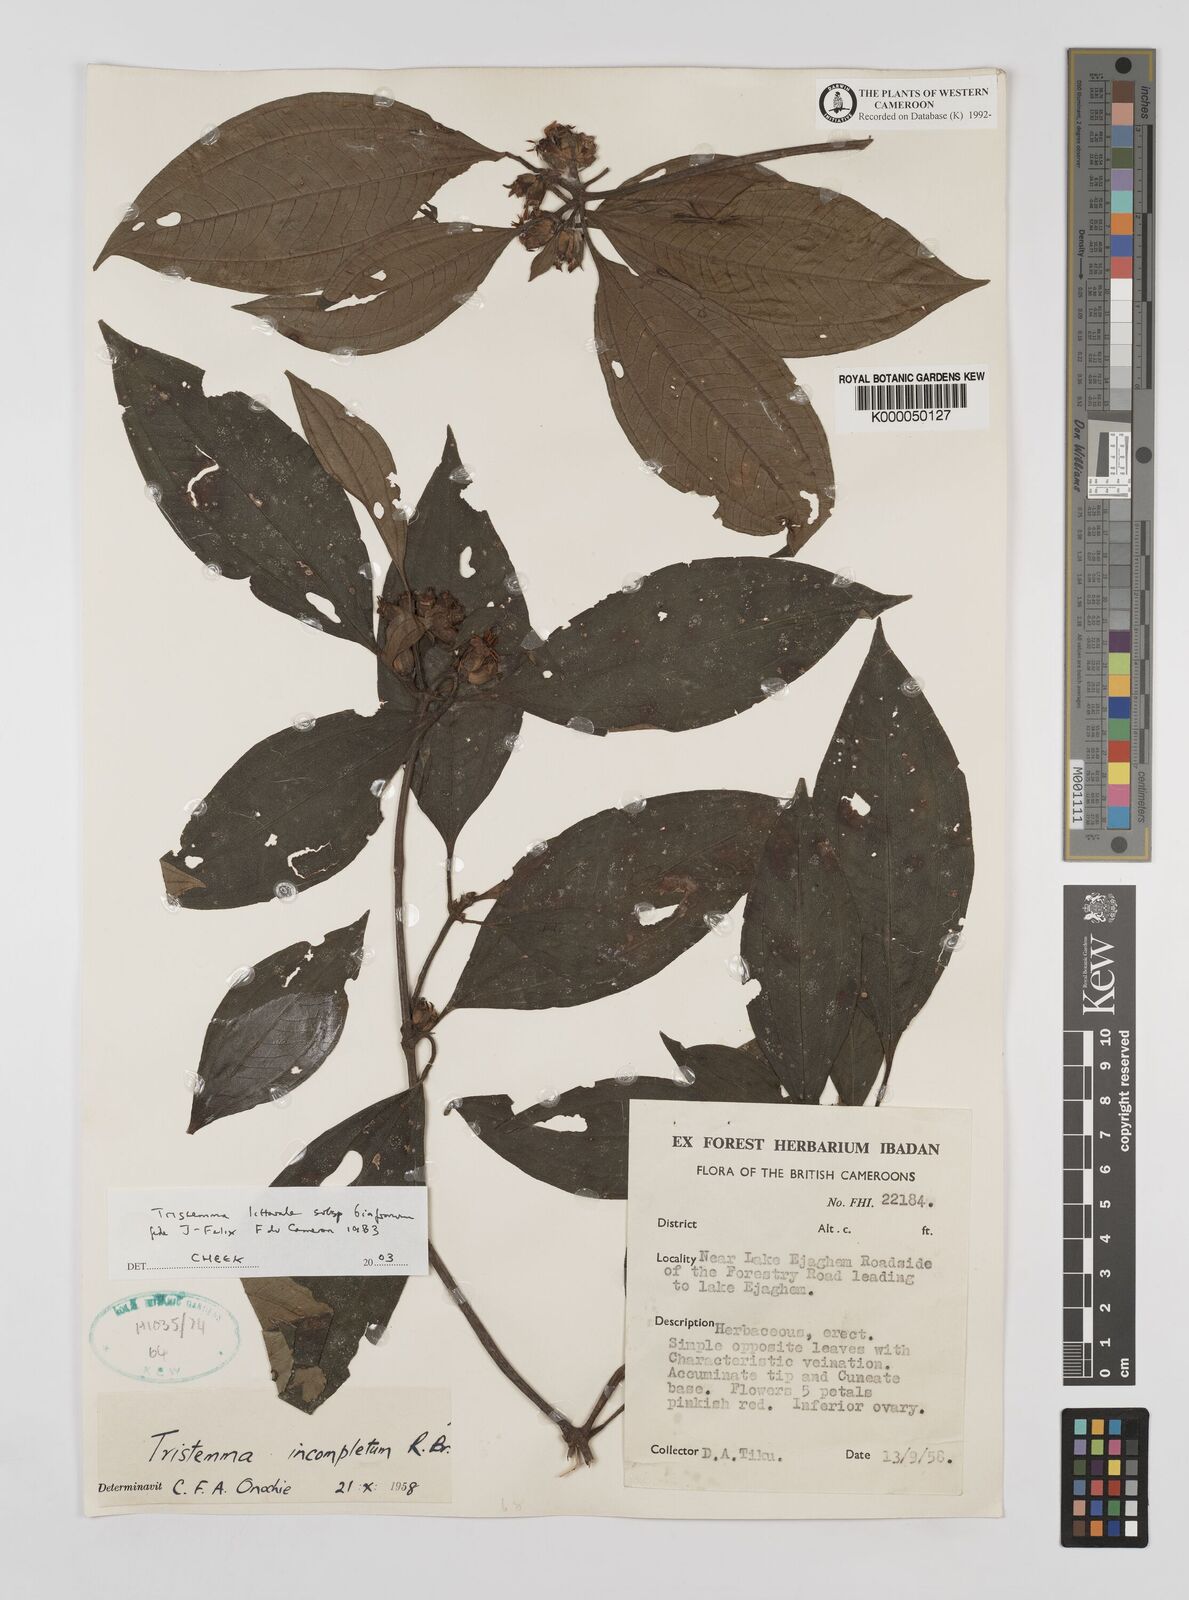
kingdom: Plantae
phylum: Tracheophyta
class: Magnoliopsida
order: Myrtales
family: Melastomataceae
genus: Tristemma
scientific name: Tristemma littorale
